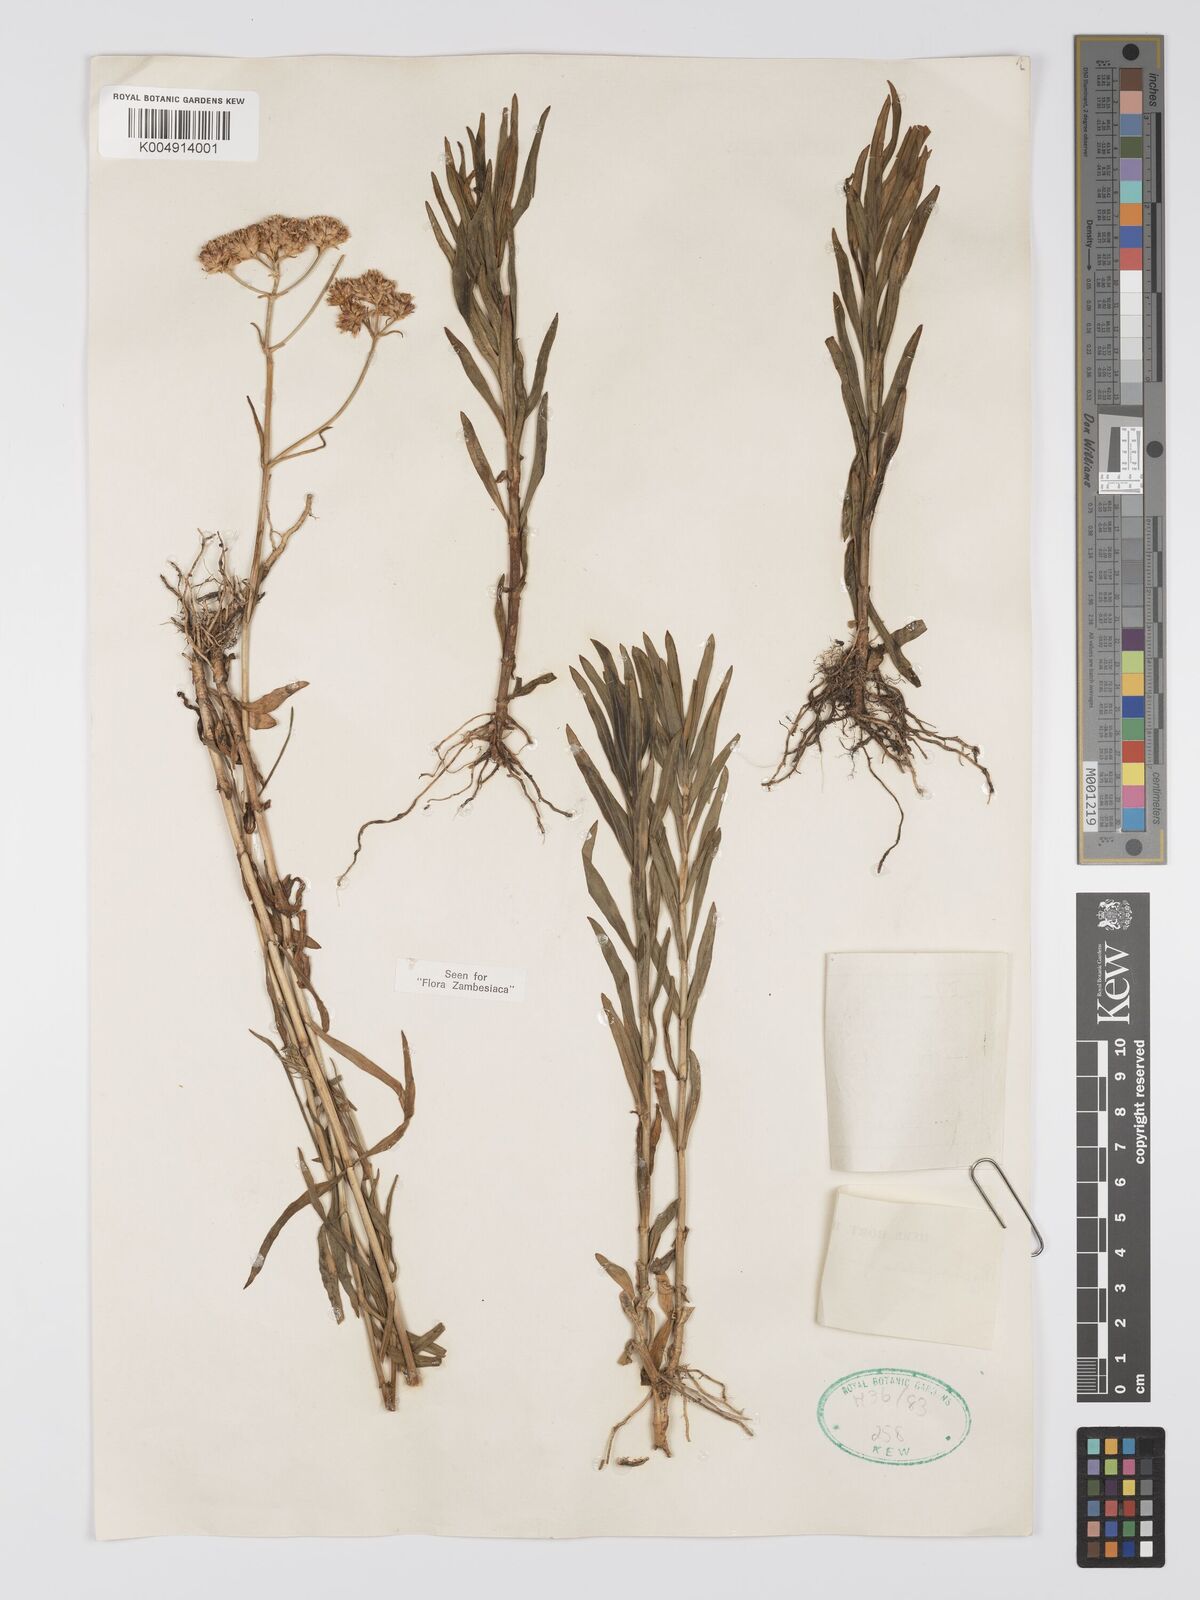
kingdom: Plantae
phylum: Tracheophyta
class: Magnoliopsida
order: Gentianales
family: Gentianaceae
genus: Pycnosphaera
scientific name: Pycnosphaera buchananii
